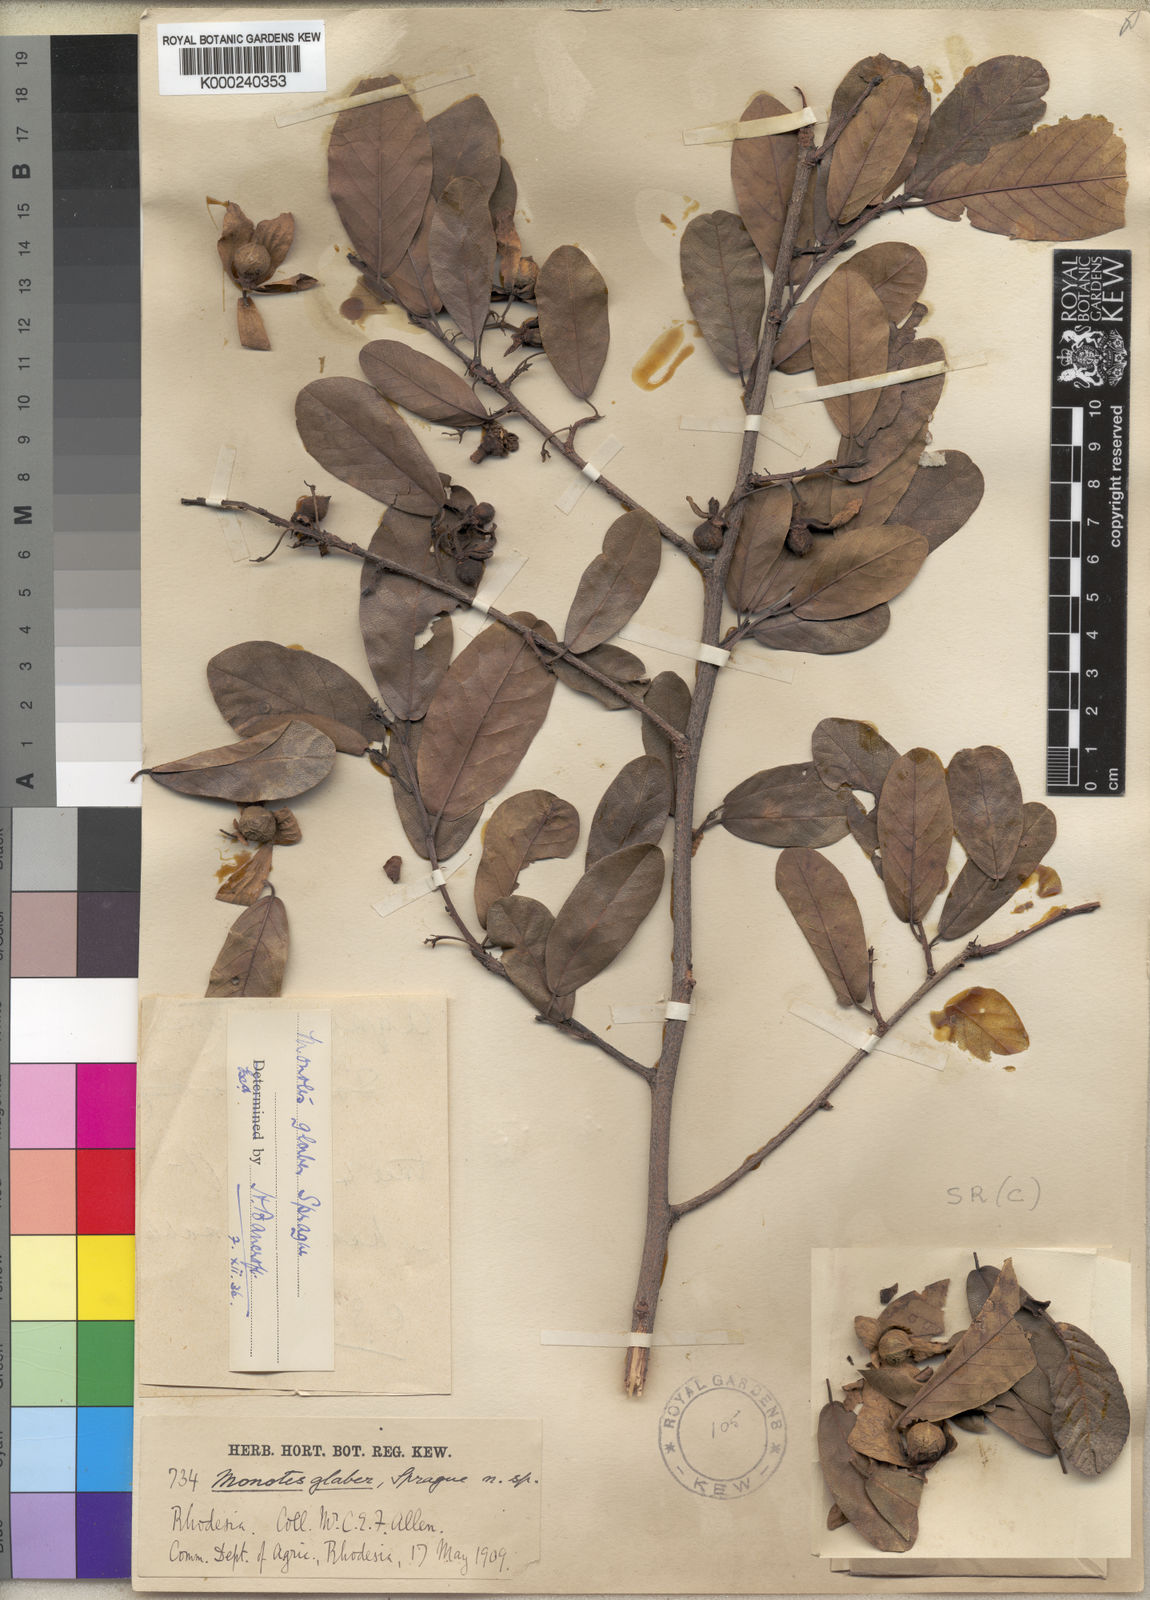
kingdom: Plantae
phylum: Tracheophyta
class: Magnoliopsida
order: Malvales
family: Dipterocarpaceae
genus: Monotes
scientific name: Monotes glaber
